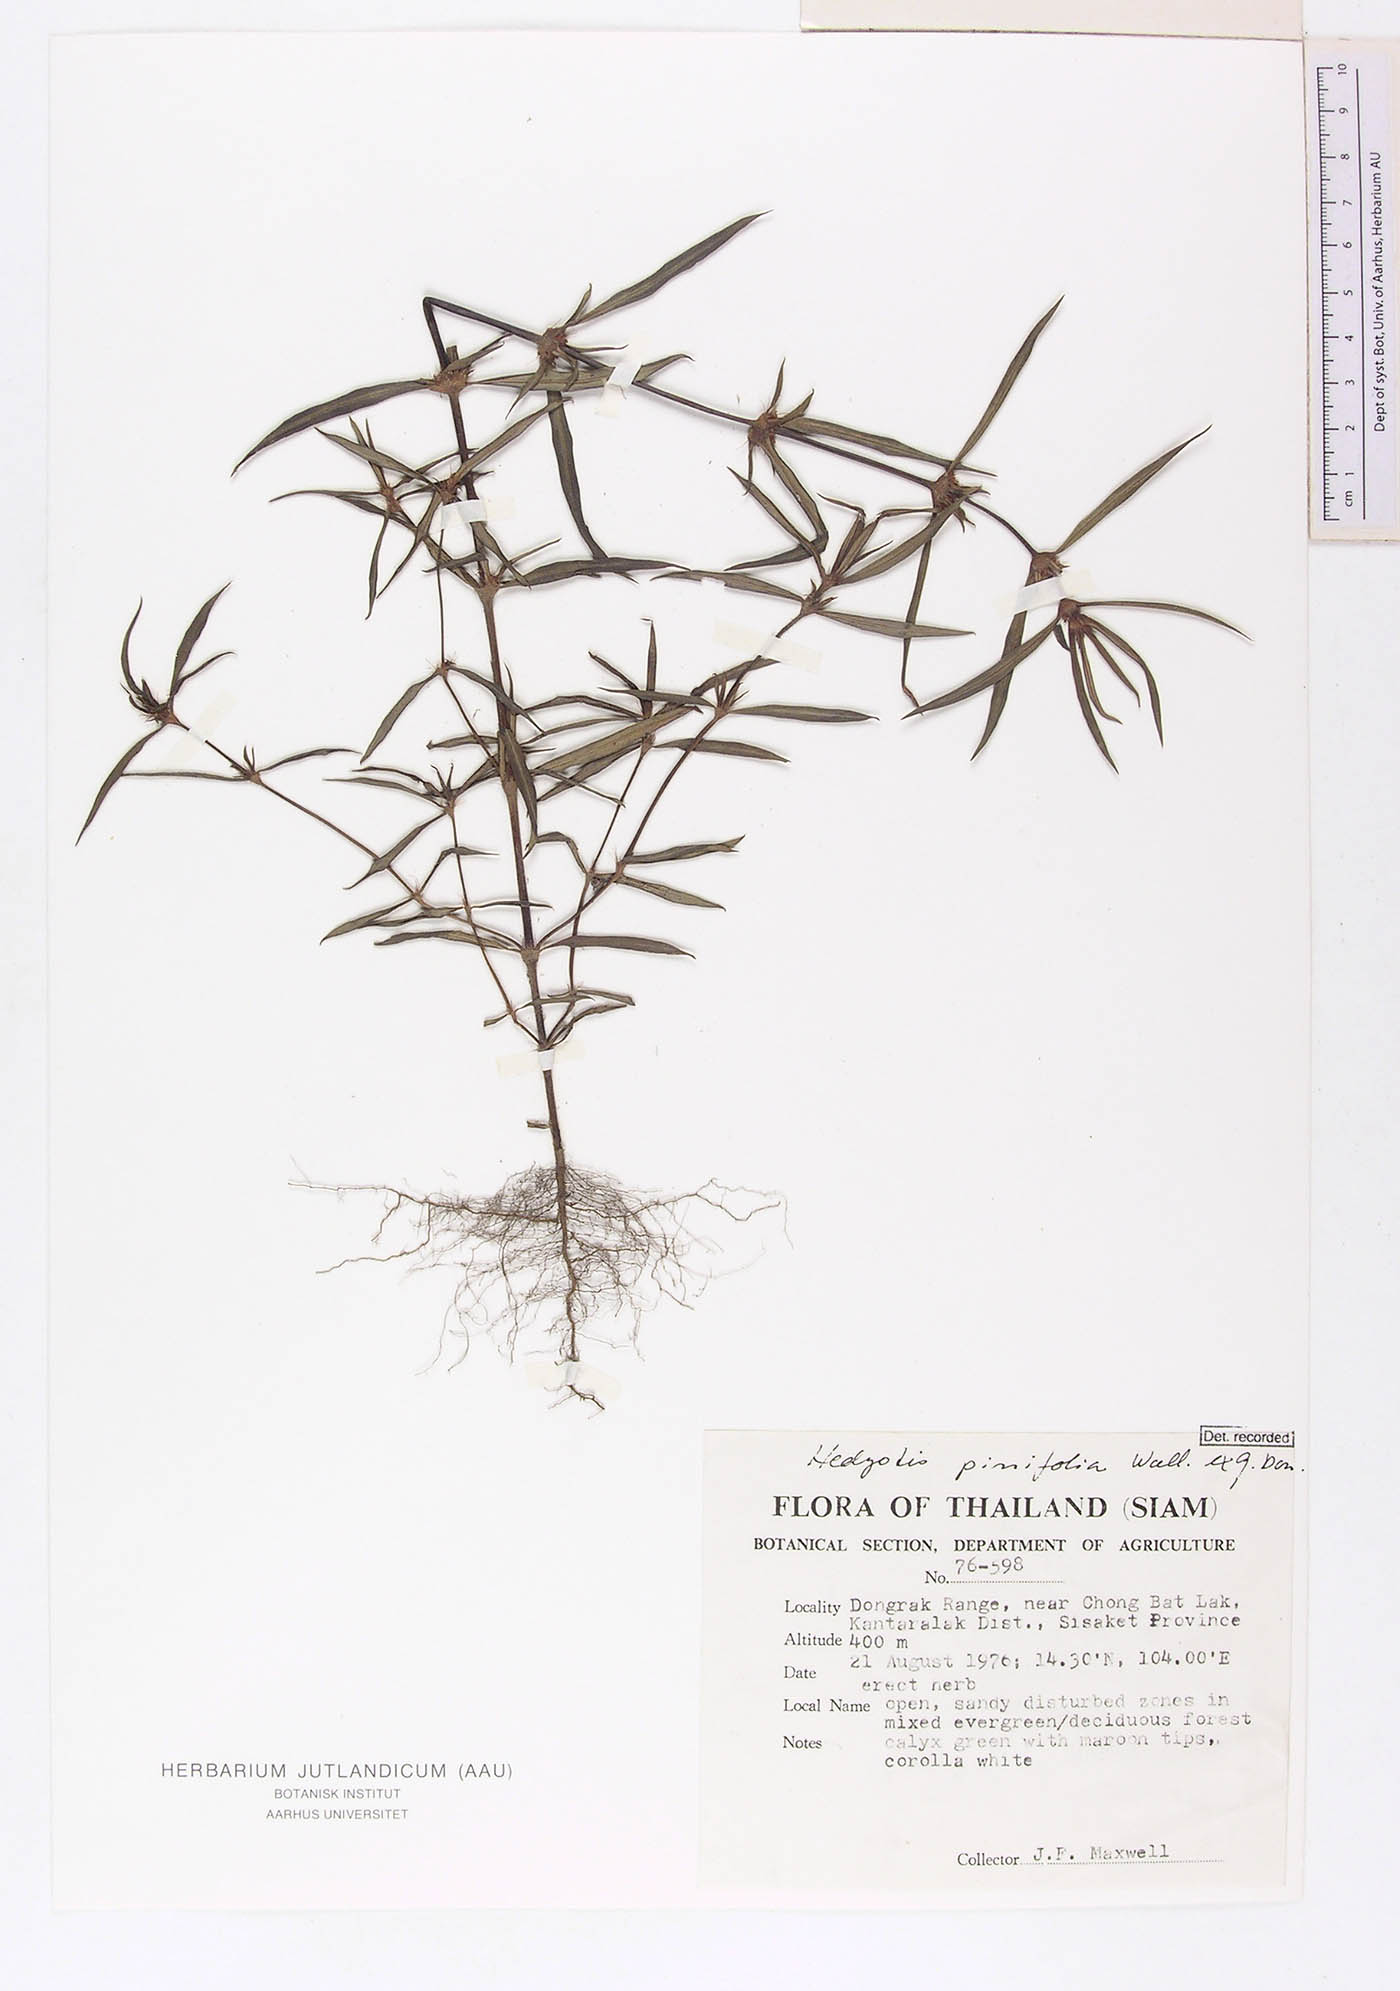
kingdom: Plantae
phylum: Tracheophyta
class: Magnoliopsida
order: Gentianales
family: Rubiaceae
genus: Scleromitrion
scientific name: Scleromitrion pinifolium
